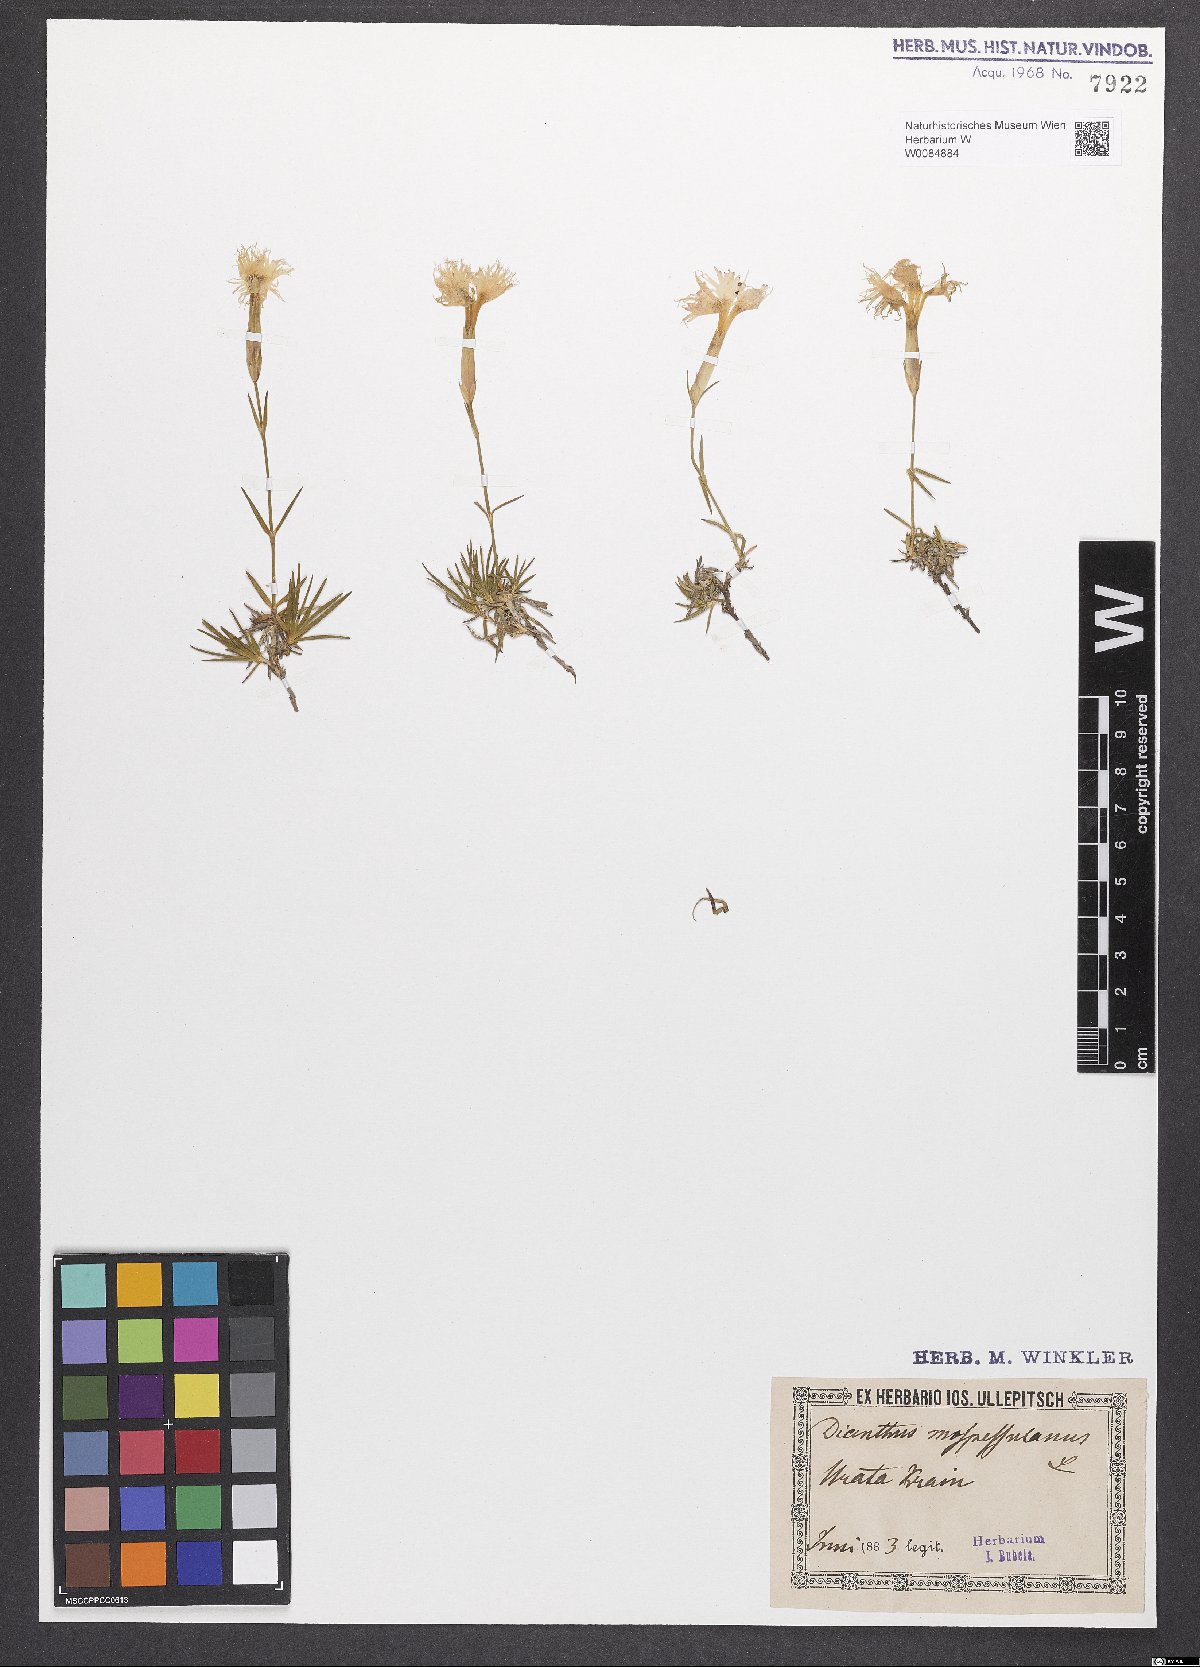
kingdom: Plantae
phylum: Tracheophyta
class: Magnoliopsida
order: Caryophyllales
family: Caryophyllaceae
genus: Dianthus
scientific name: Dianthus hyssopifolius
